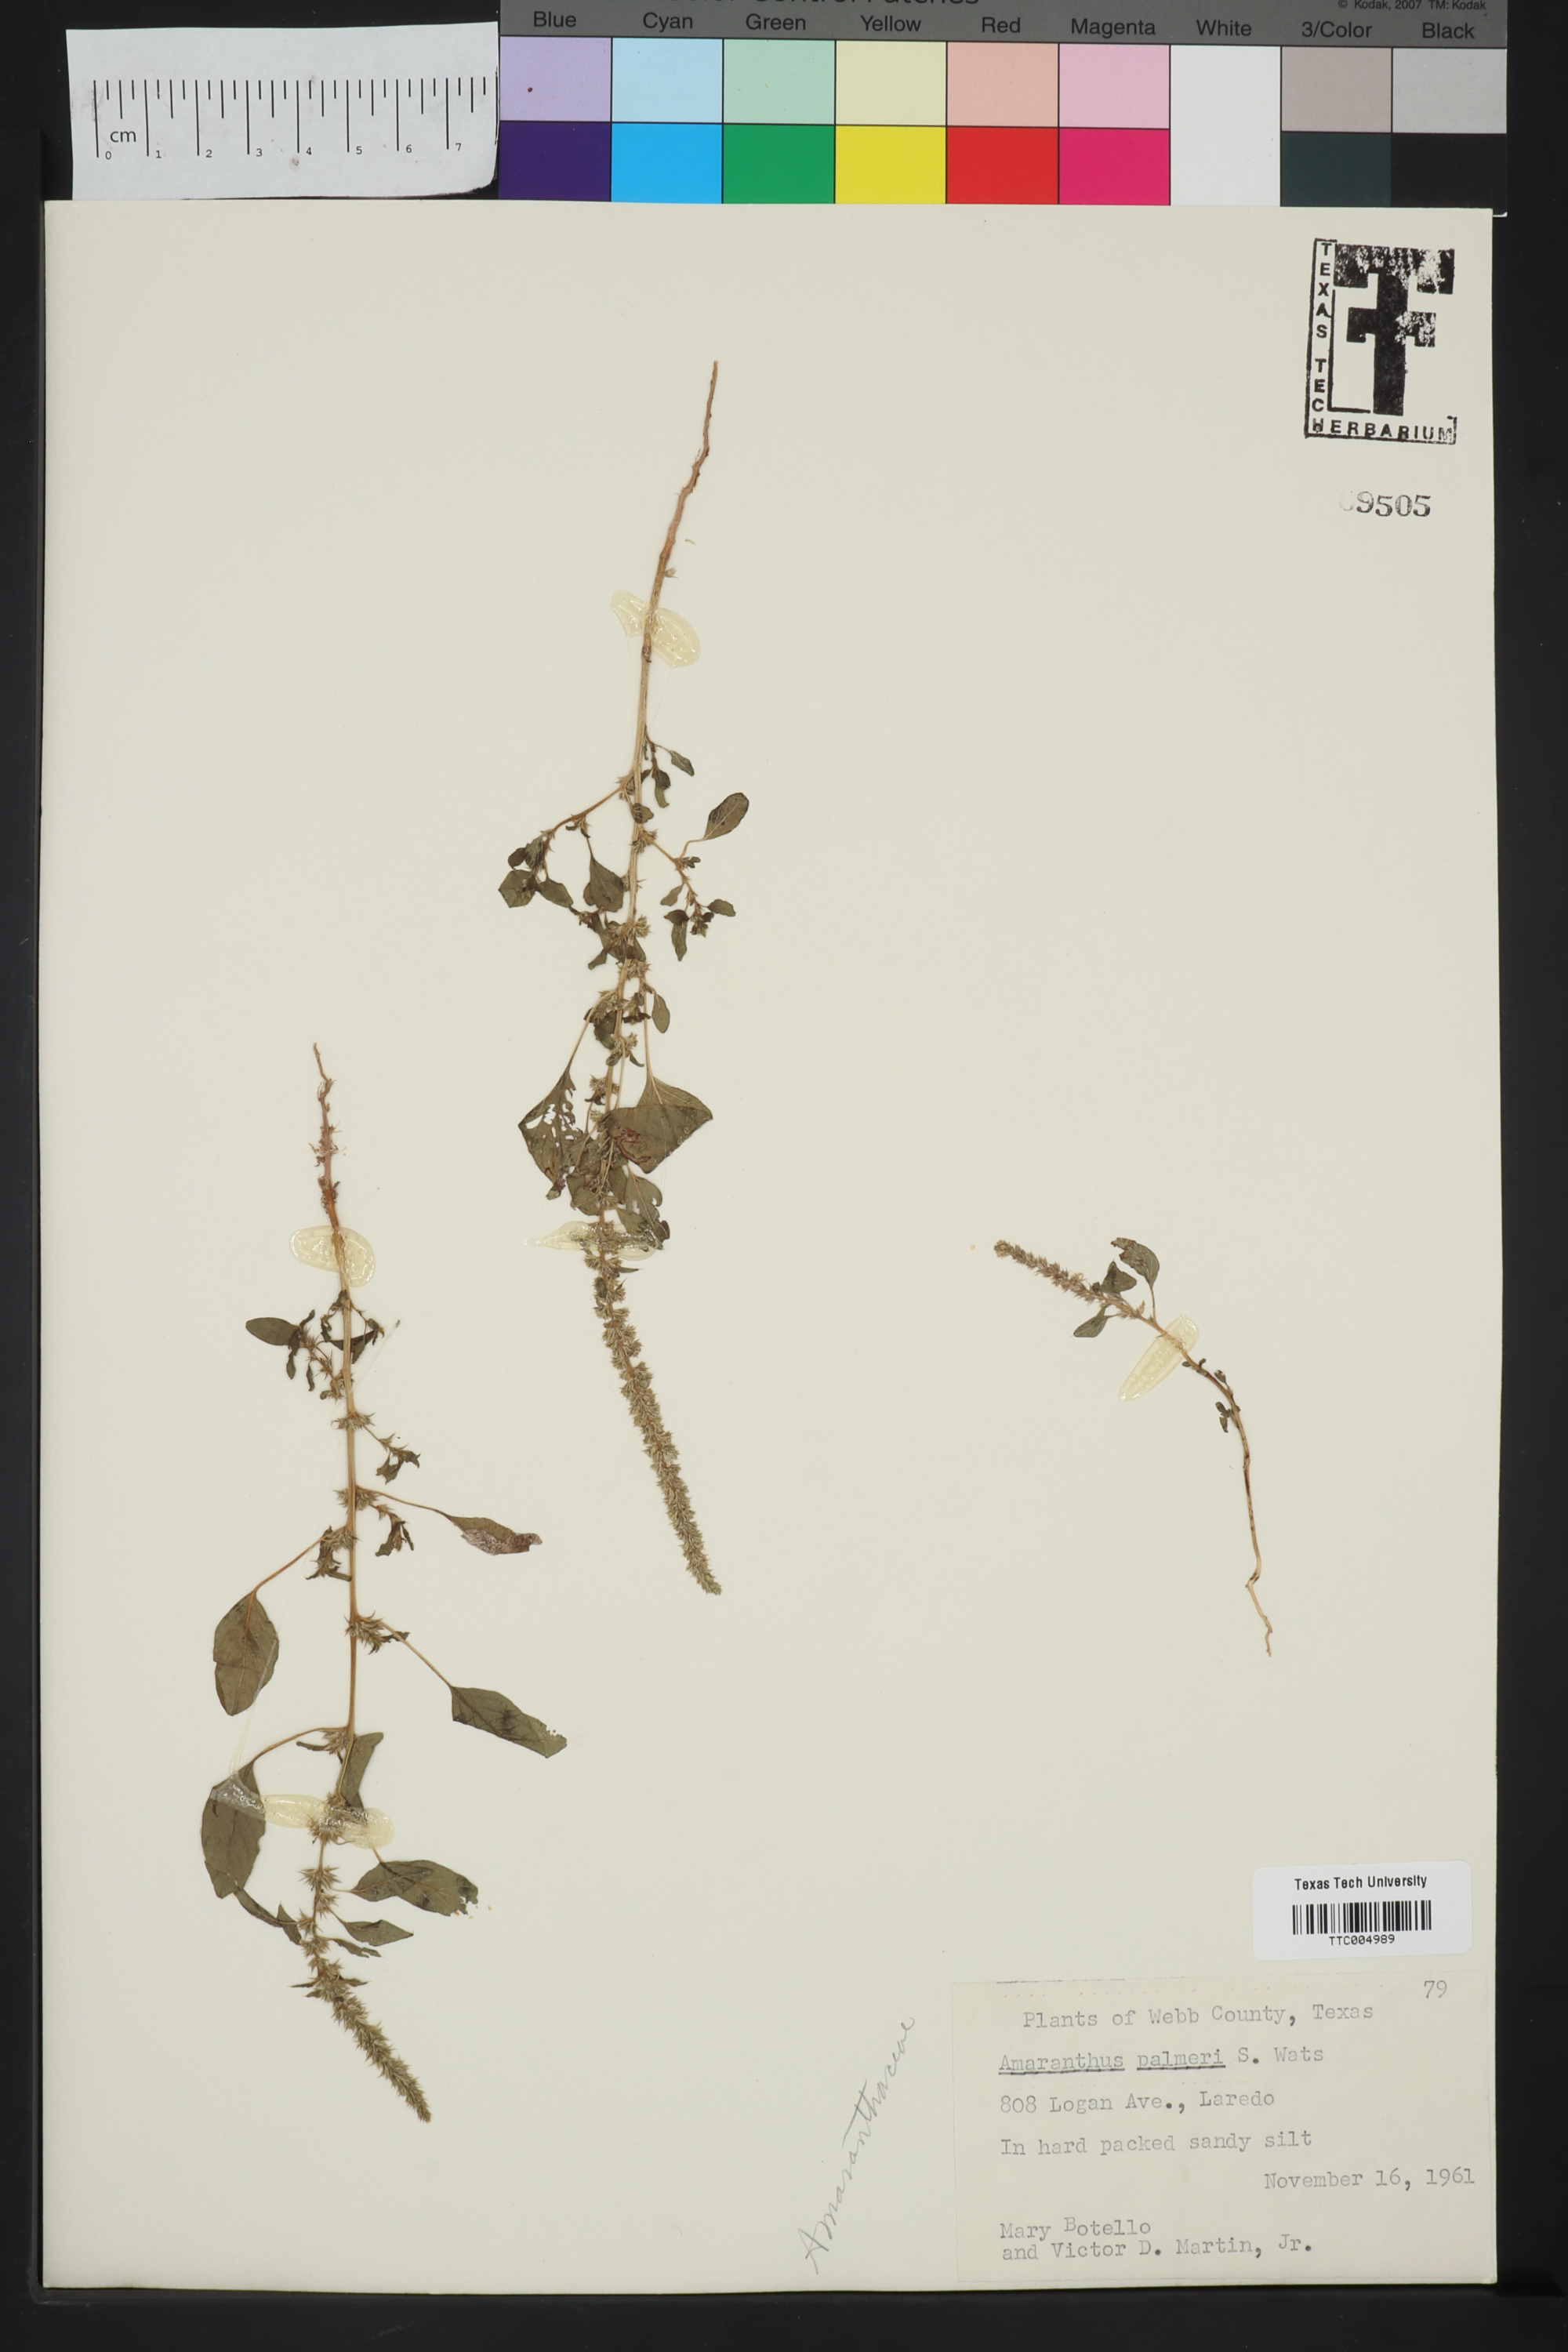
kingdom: Plantae
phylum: Tracheophyta
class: Magnoliopsida
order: Caryophyllales
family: Amaranthaceae
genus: Amaranthus
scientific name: Amaranthus palmeri
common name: Dioecious amaranth
